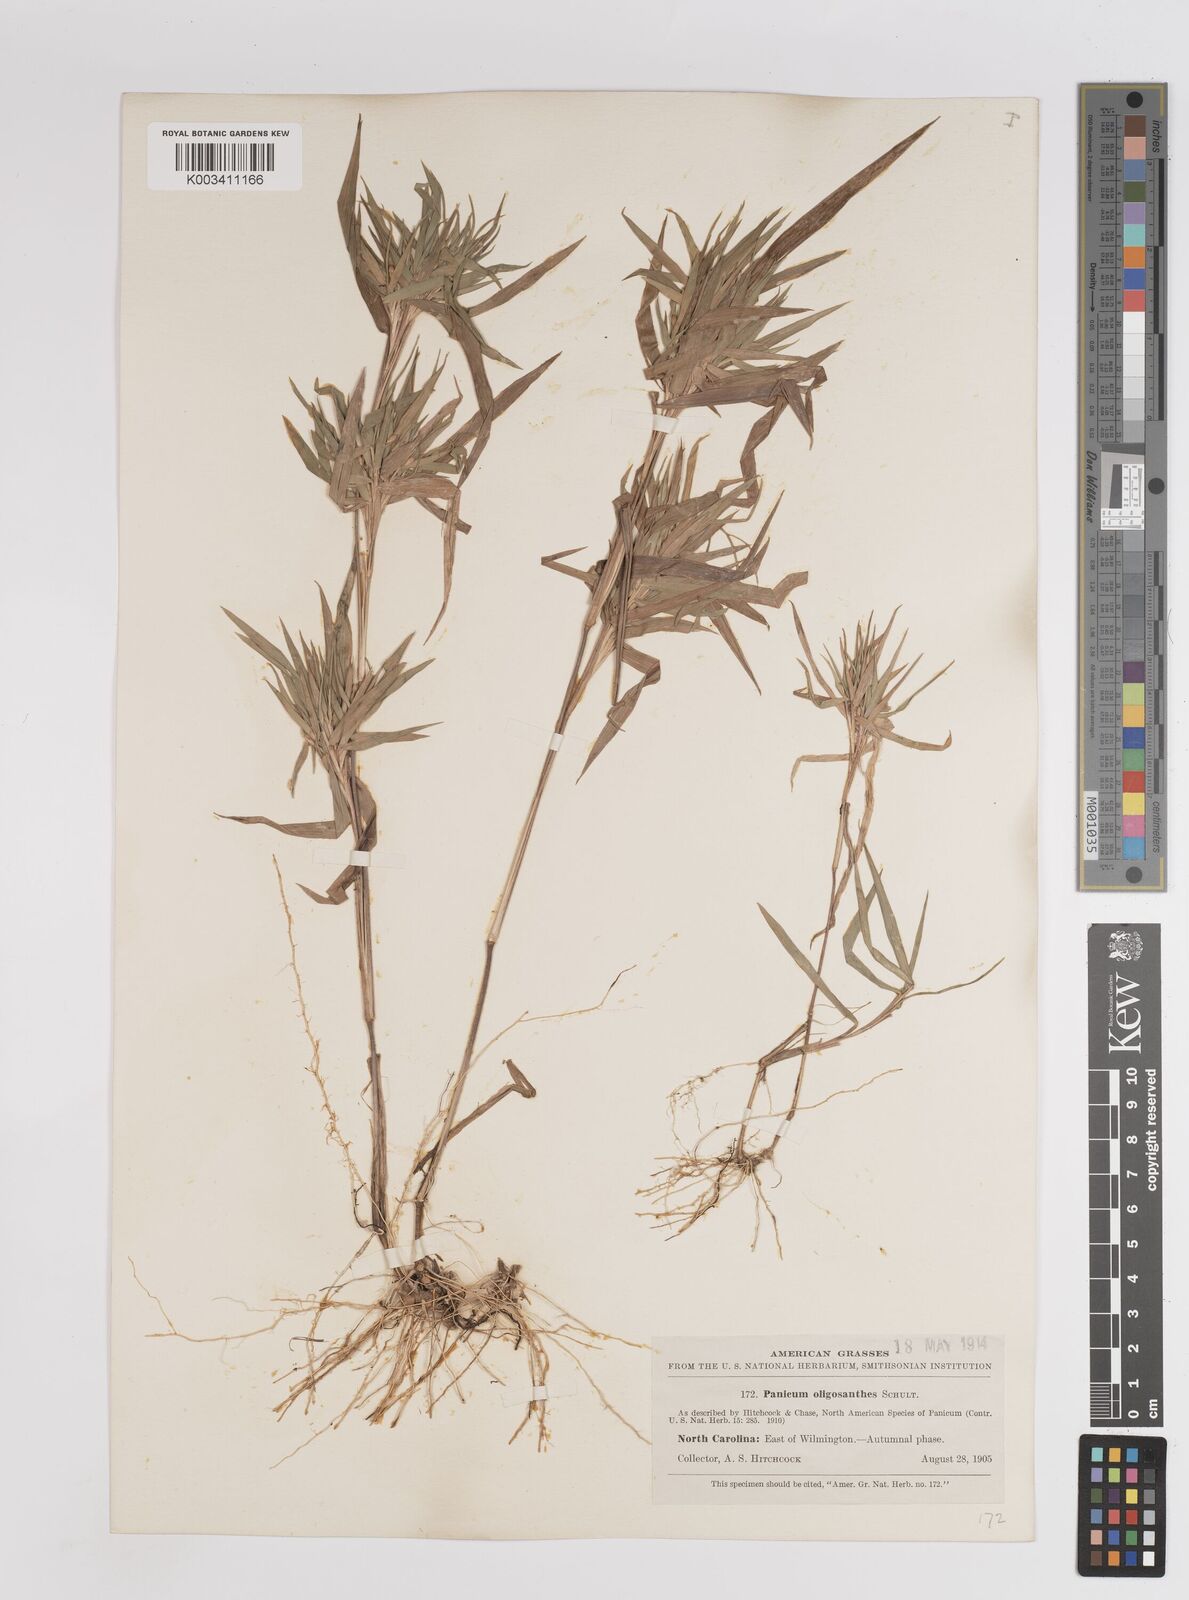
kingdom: Plantae
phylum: Tracheophyta
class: Liliopsida
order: Poales
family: Poaceae
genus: Dichanthelium
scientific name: Dichanthelium oligosanthes
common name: Few-anther obscuregrass
